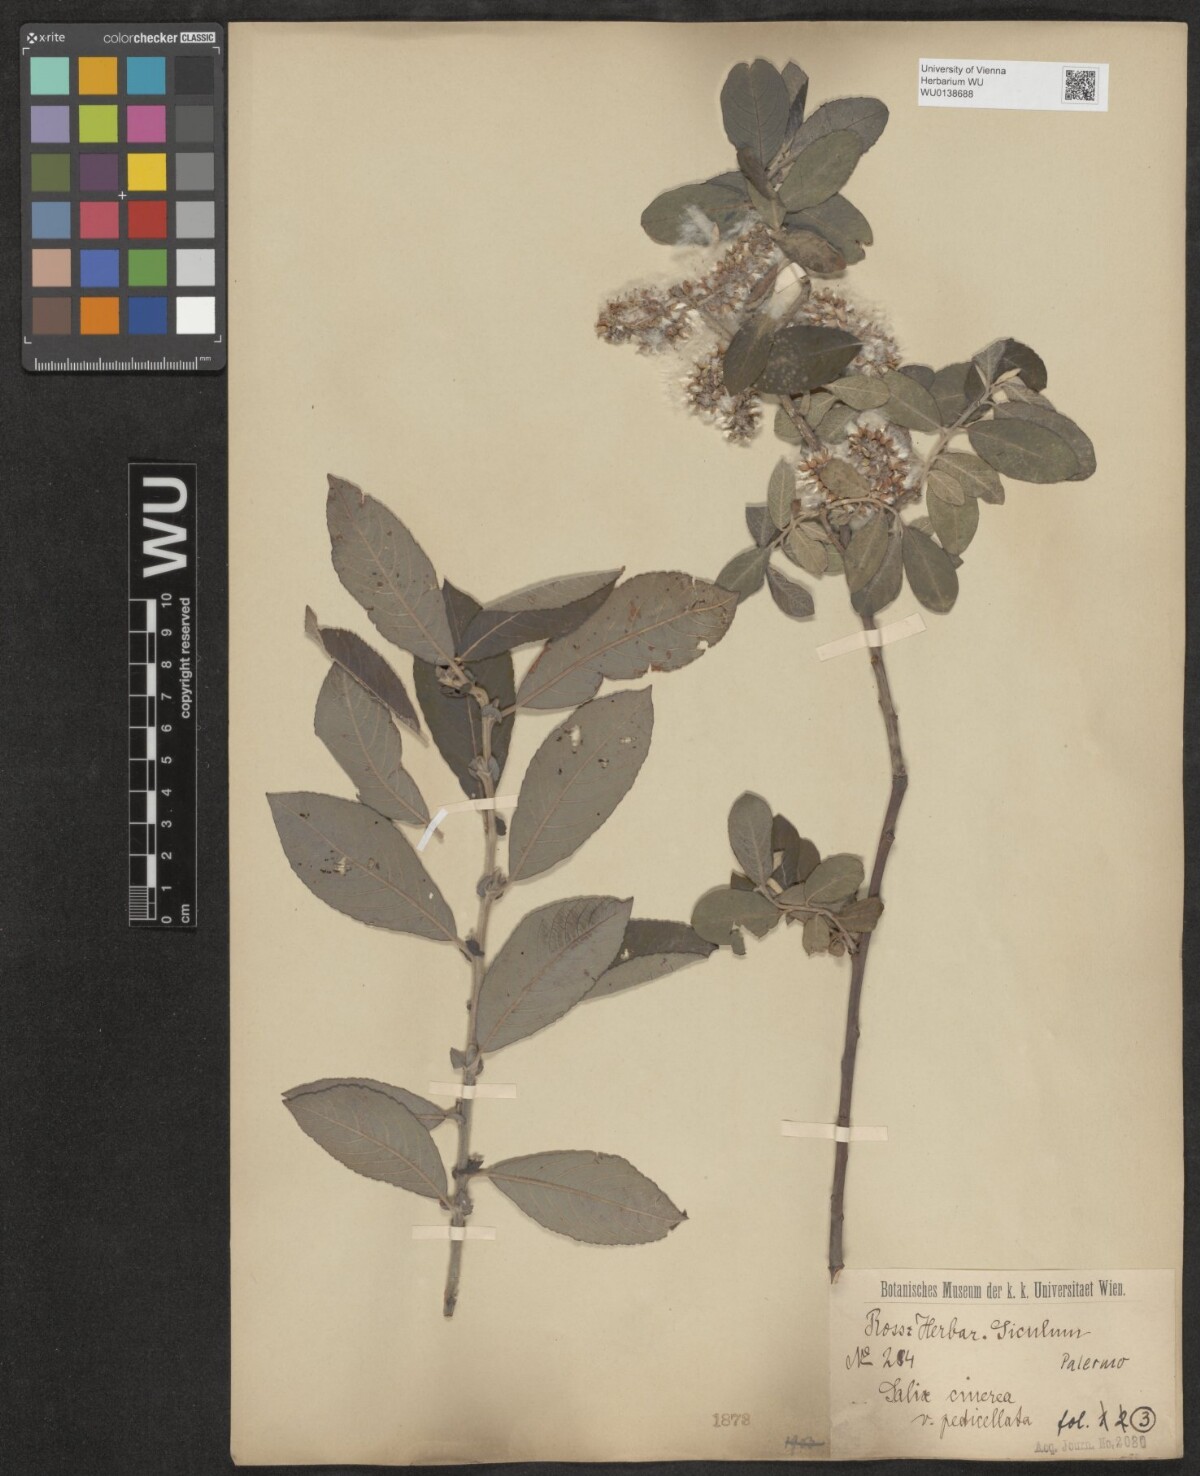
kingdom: Plantae
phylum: Tracheophyta
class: Magnoliopsida
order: Malpighiales
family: Salicaceae
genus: Salix
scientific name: Salix pedicellata
